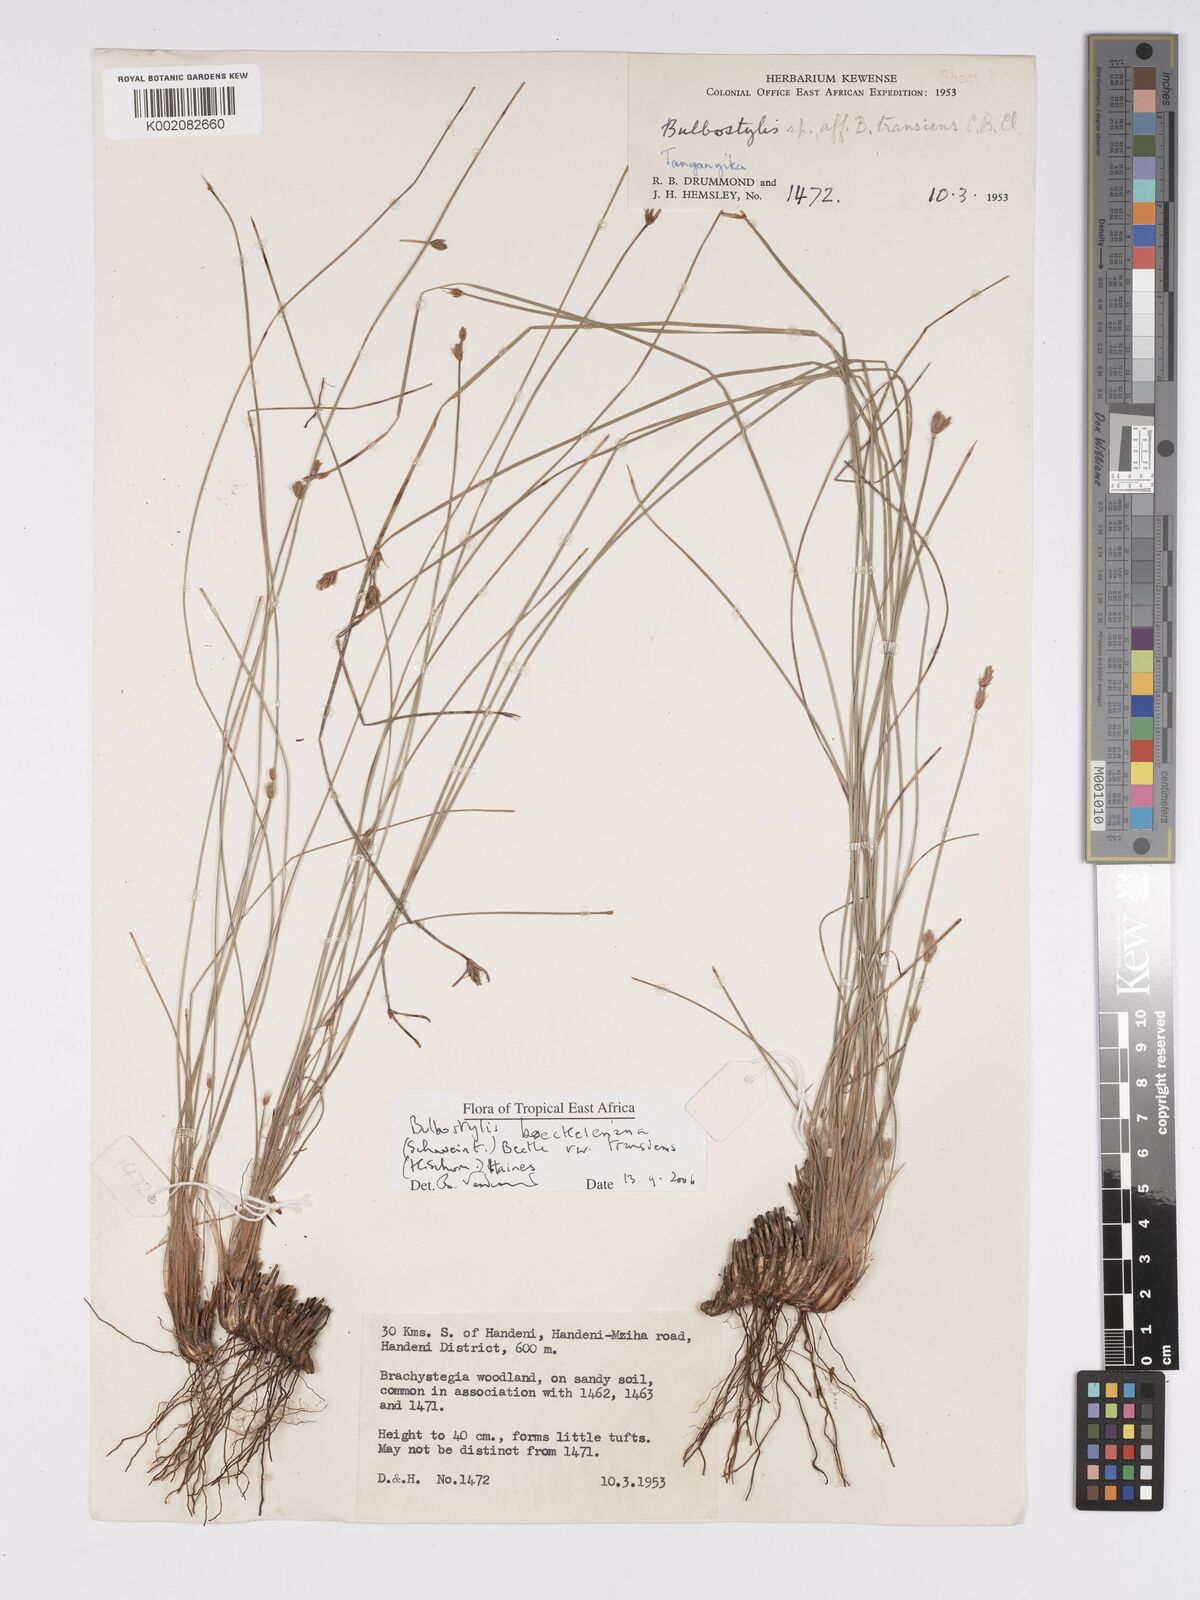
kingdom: Plantae
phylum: Tracheophyta
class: Liliopsida
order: Poales
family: Cyperaceae
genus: Bulbostylis
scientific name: Bulbostylis boeckeleriana
